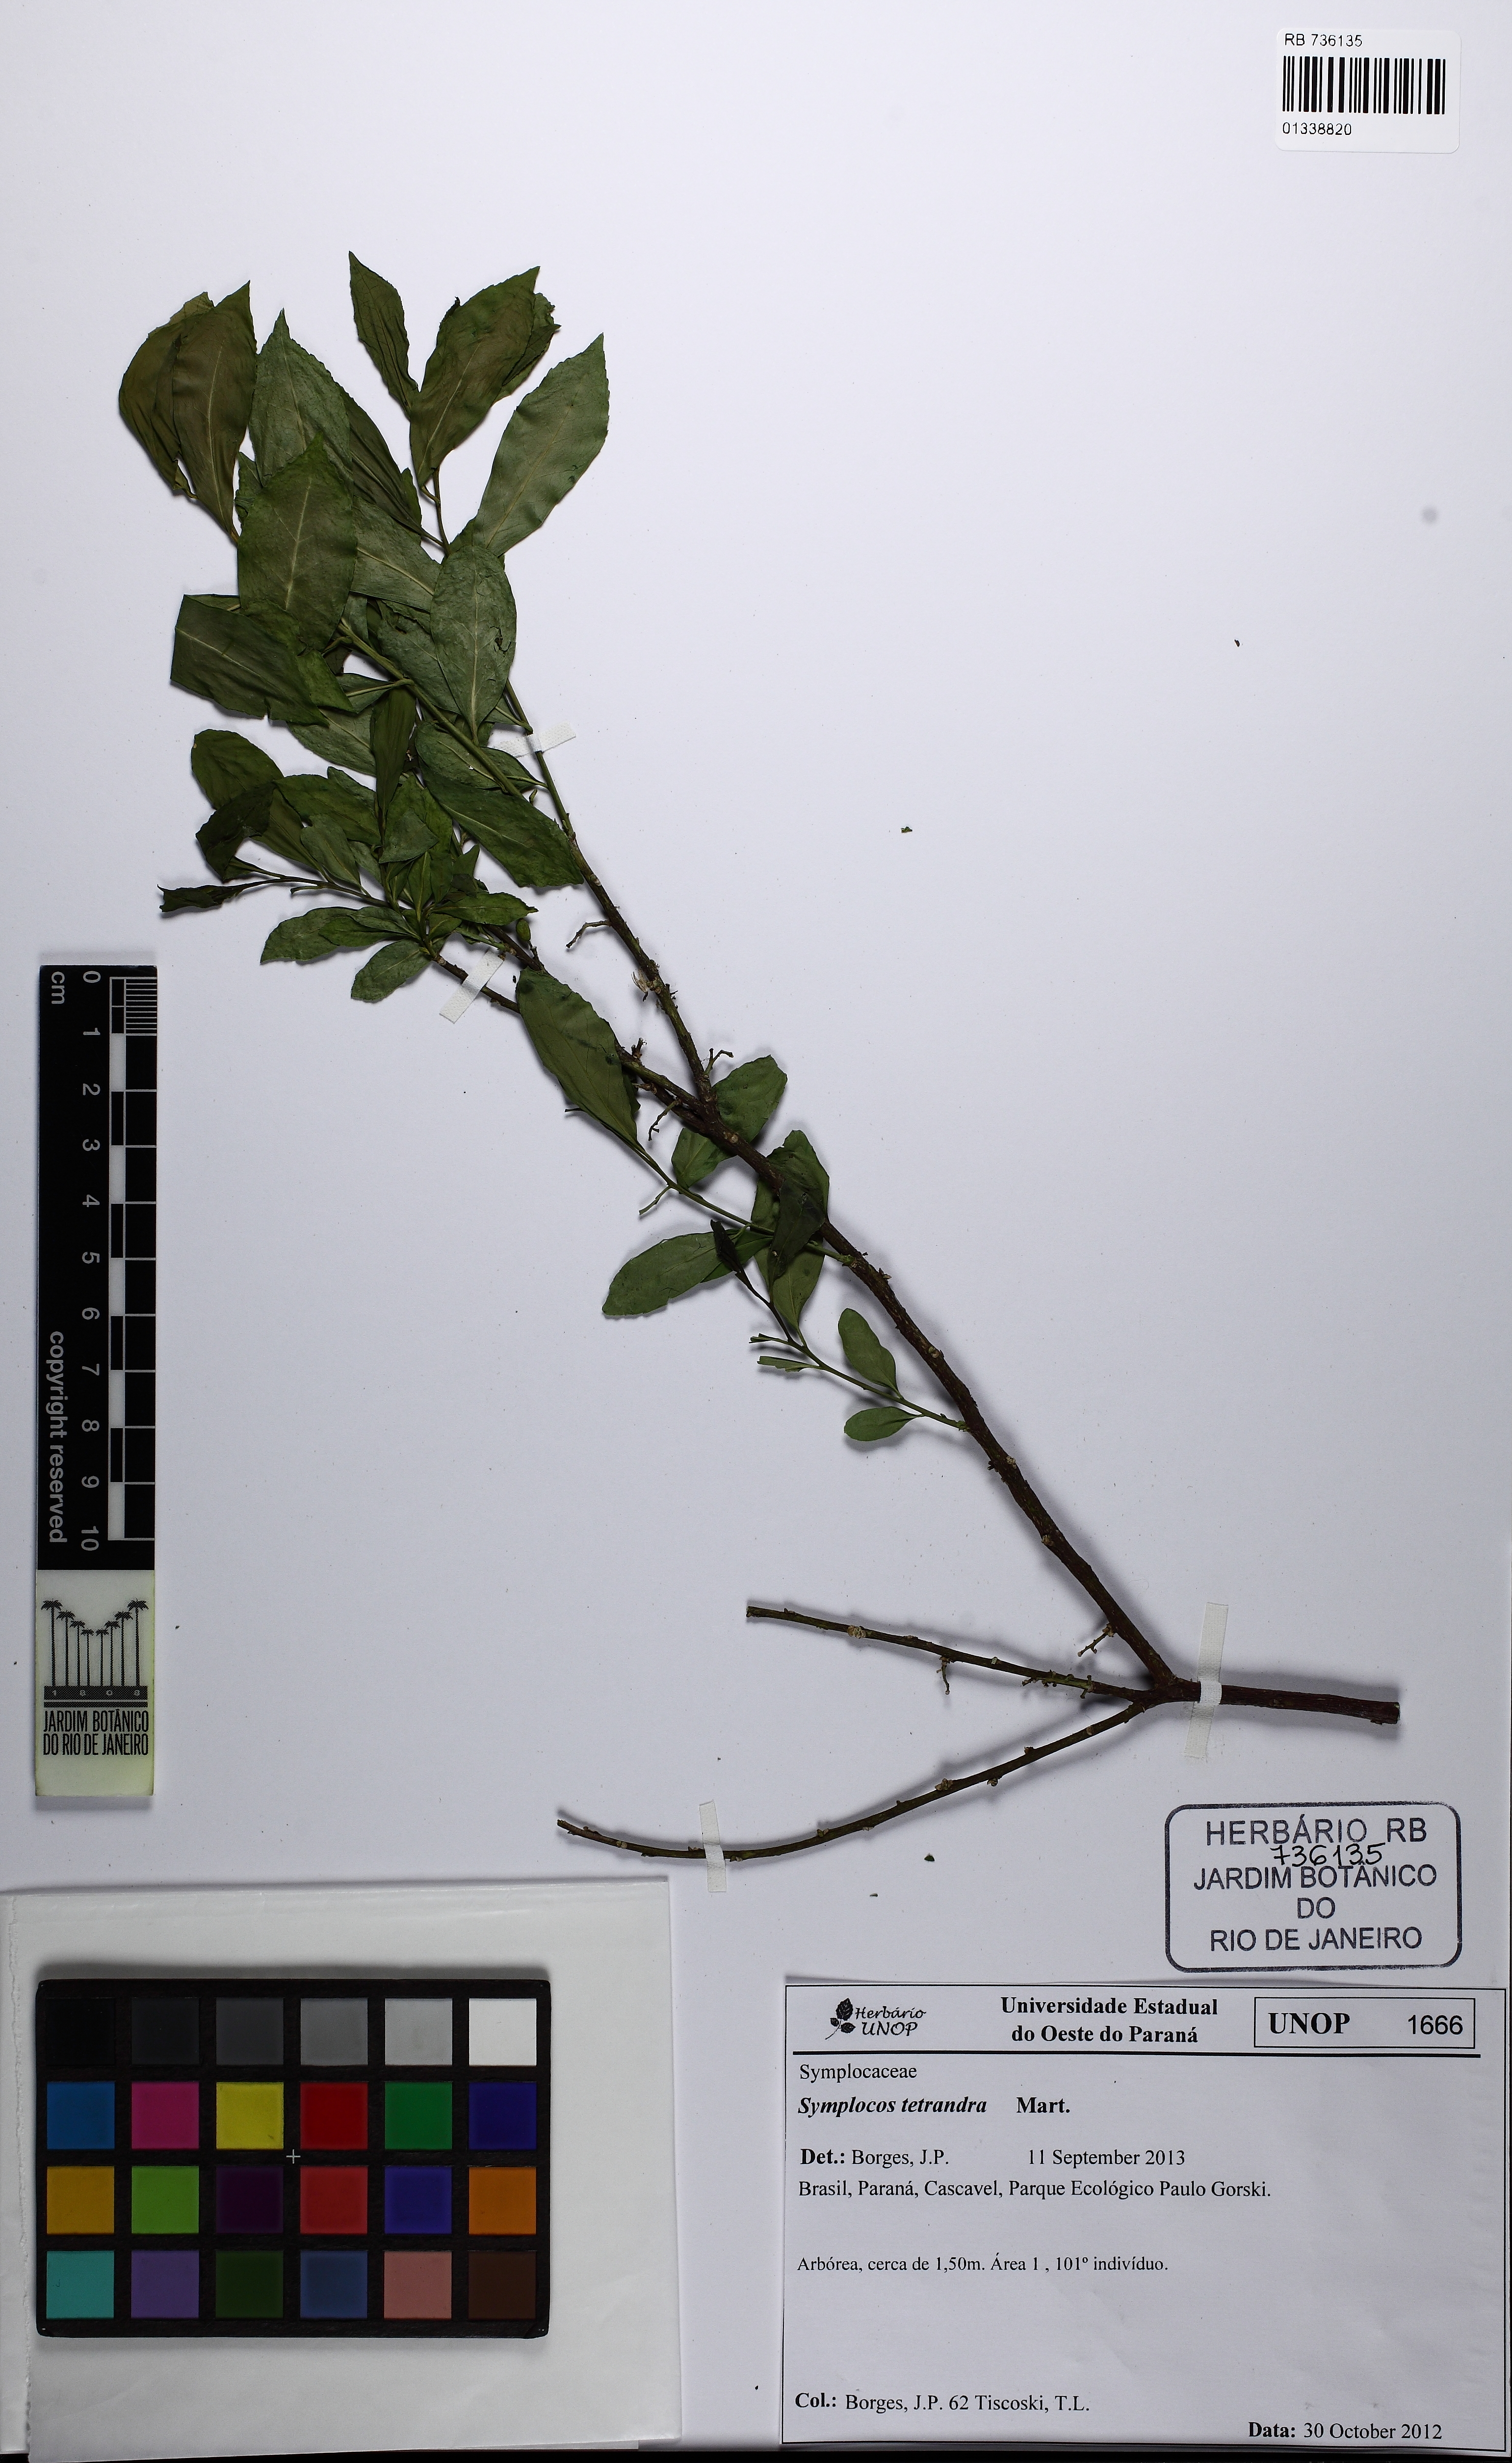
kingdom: Plantae
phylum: Tracheophyta
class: Magnoliopsida
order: Ericales
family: Symplocaceae
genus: Symplocos
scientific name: Symplocos tetrandra
